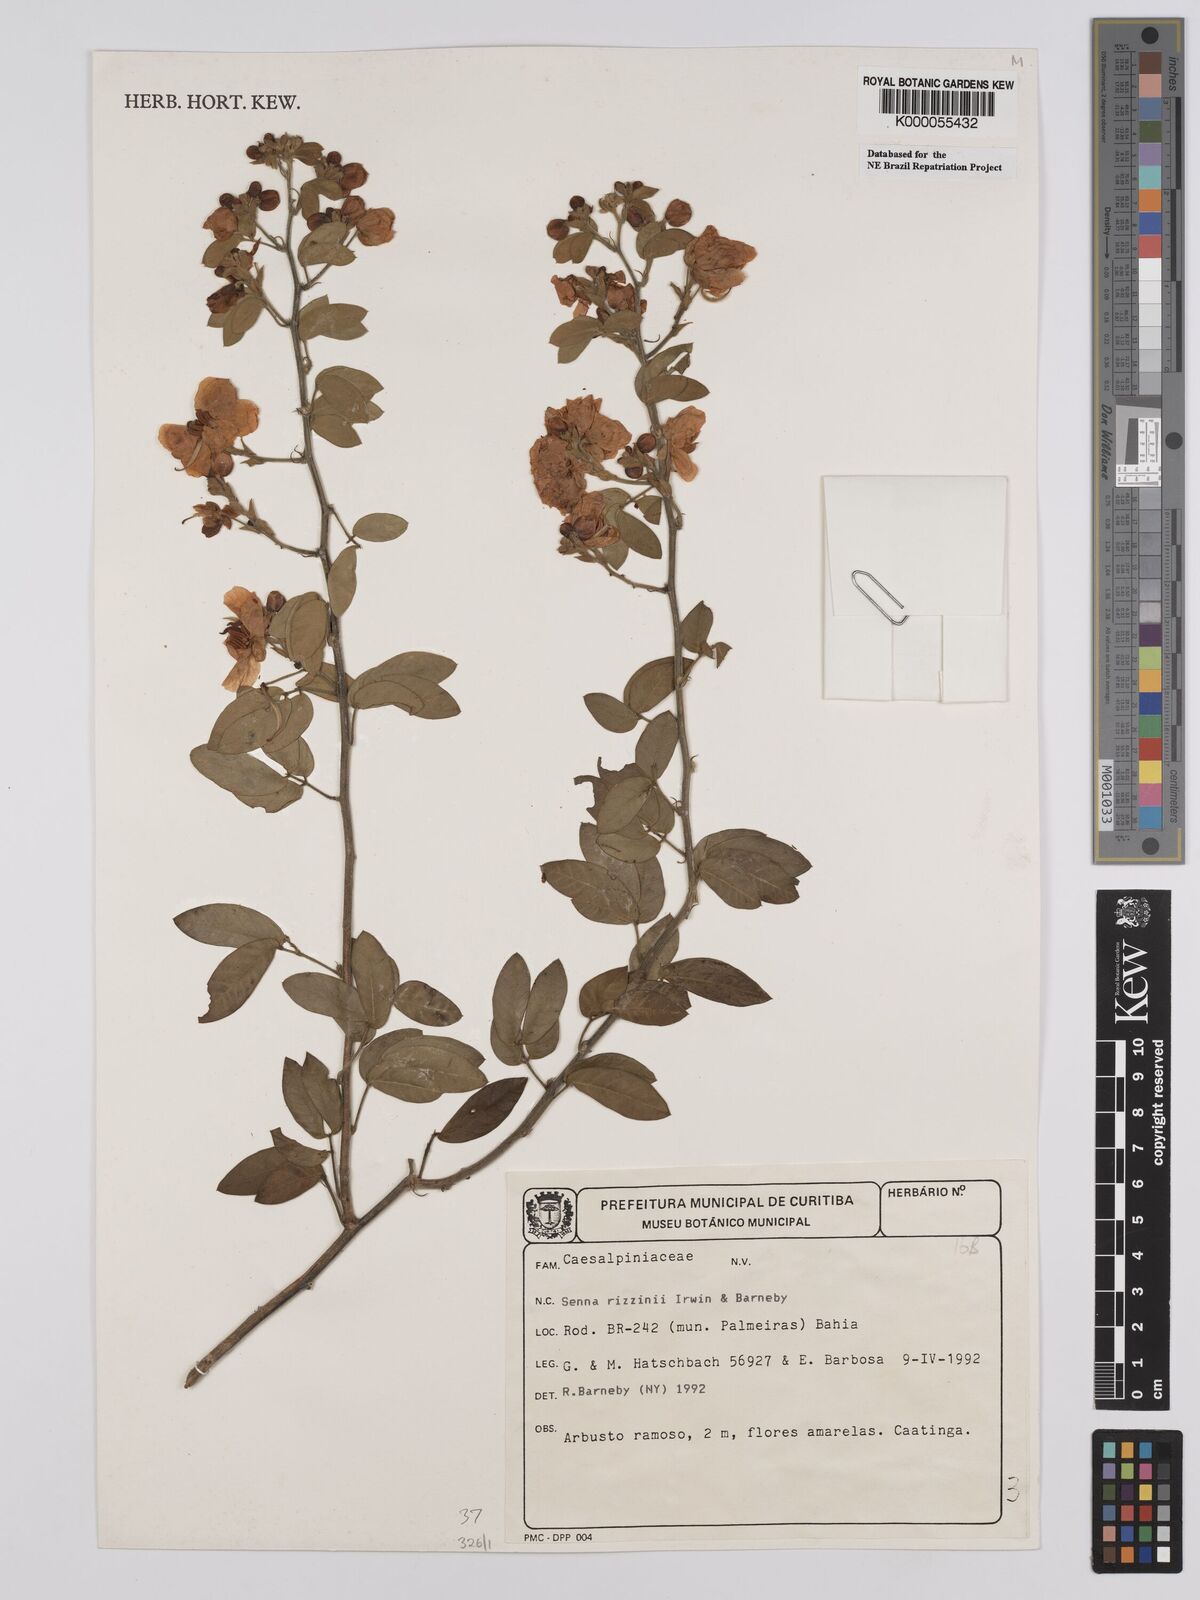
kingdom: Plantae
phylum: Tracheophyta
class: Magnoliopsida
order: Fabales
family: Fabaceae
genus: Senna
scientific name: Senna rizzinii
